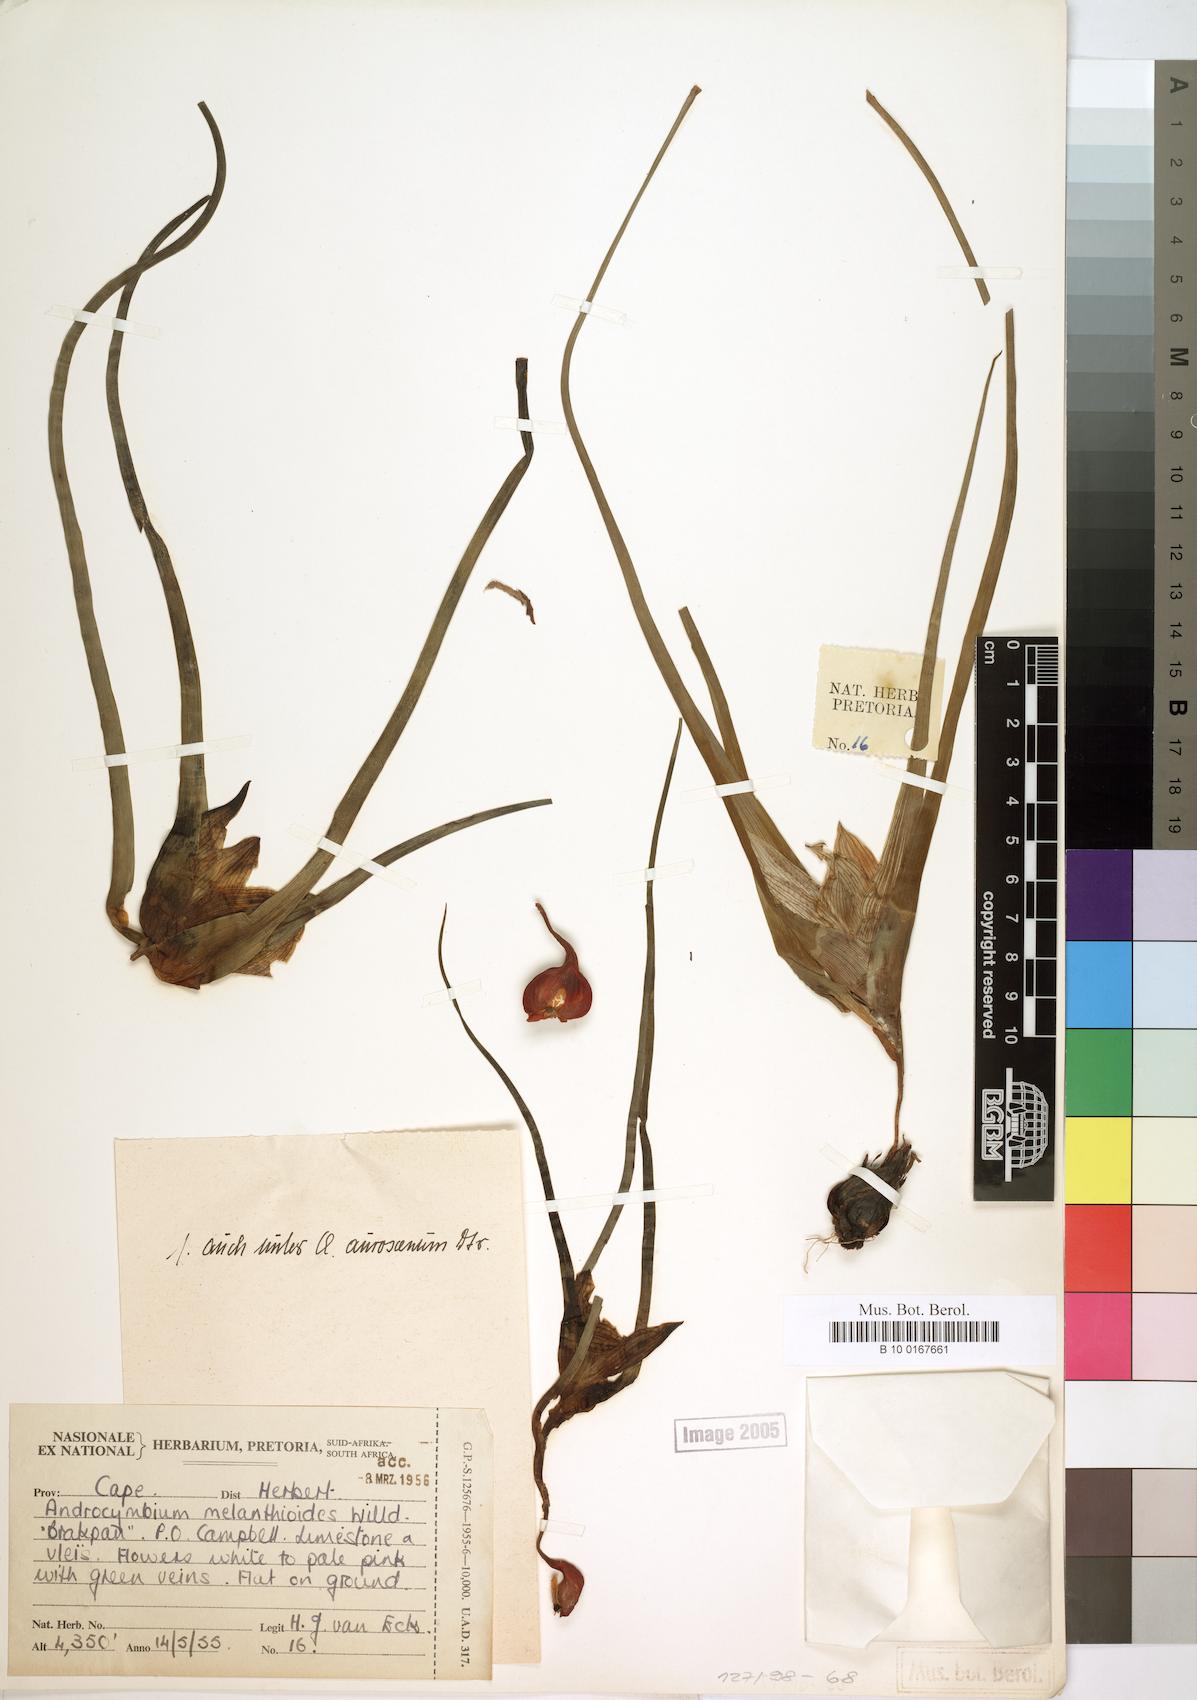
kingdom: Plantae
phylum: Tracheophyta
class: Liliopsida
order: Liliales
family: Colchicaceae
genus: Colchicum
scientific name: Colchicum melanthioides
